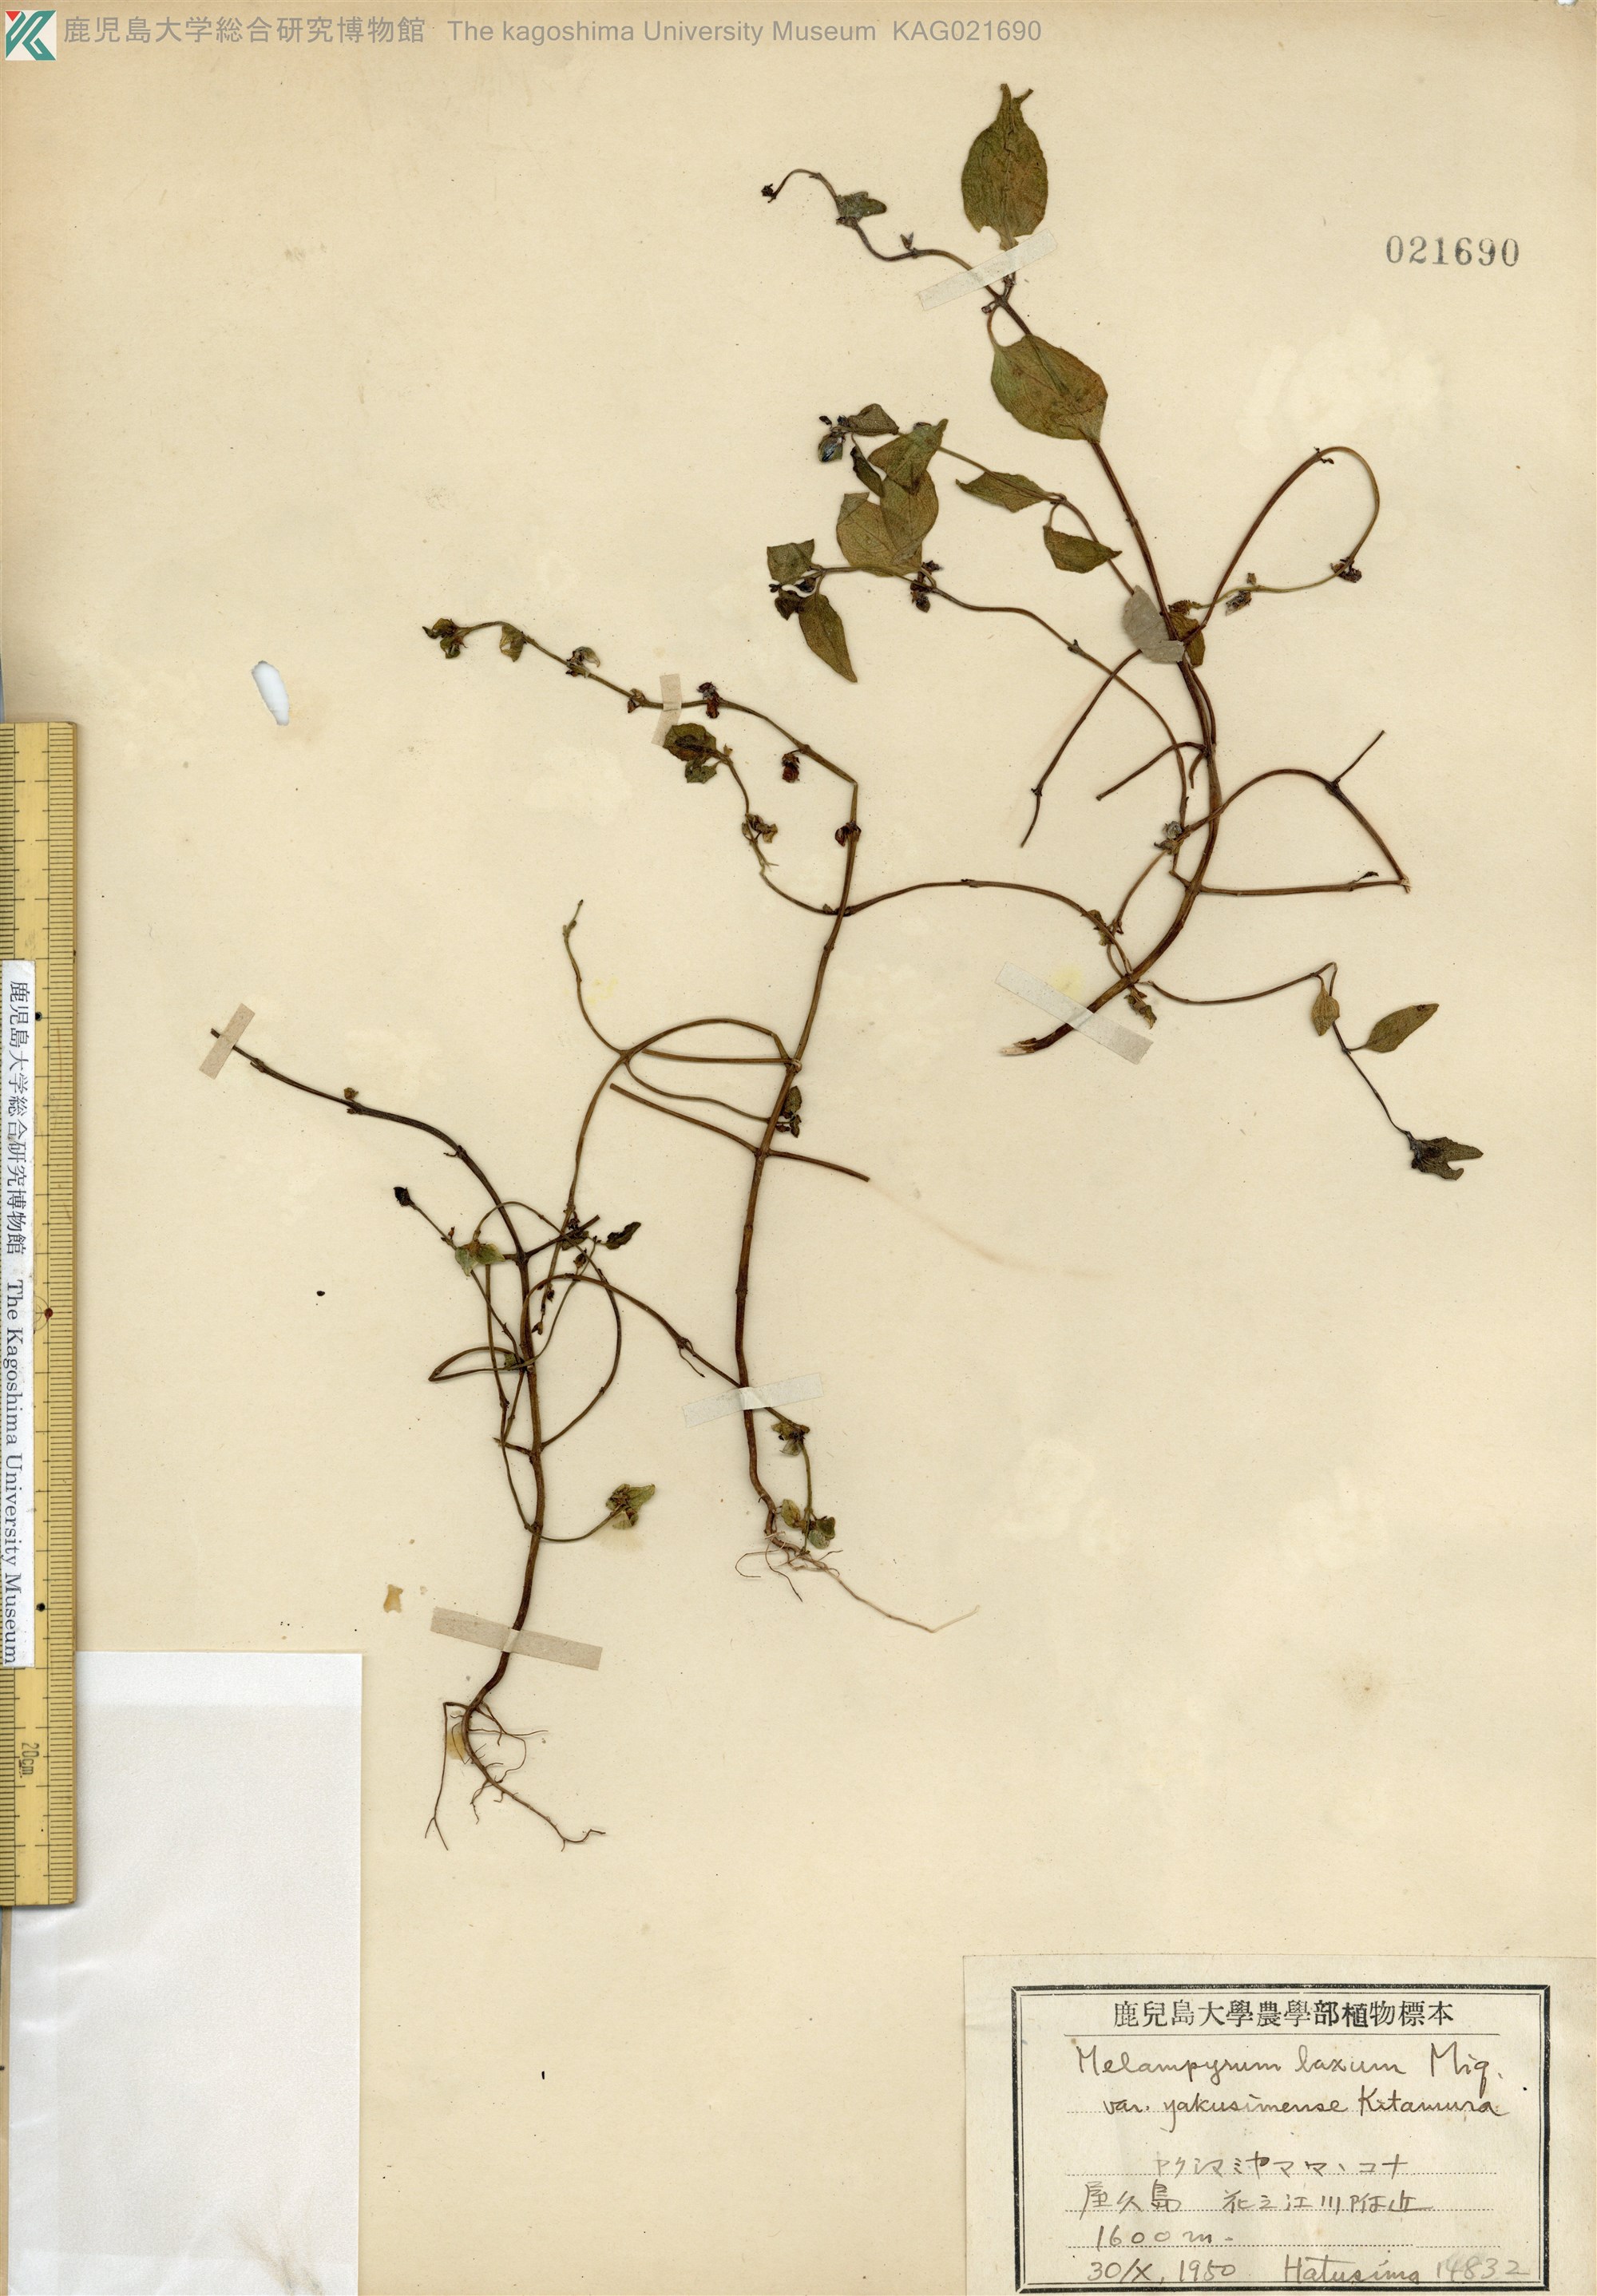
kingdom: Plantae
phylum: Tracheophyta
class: Magnoliopsida
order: Lamiales
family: Orobanchaceae
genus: Melampyrum
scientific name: Melampyrum laxum
